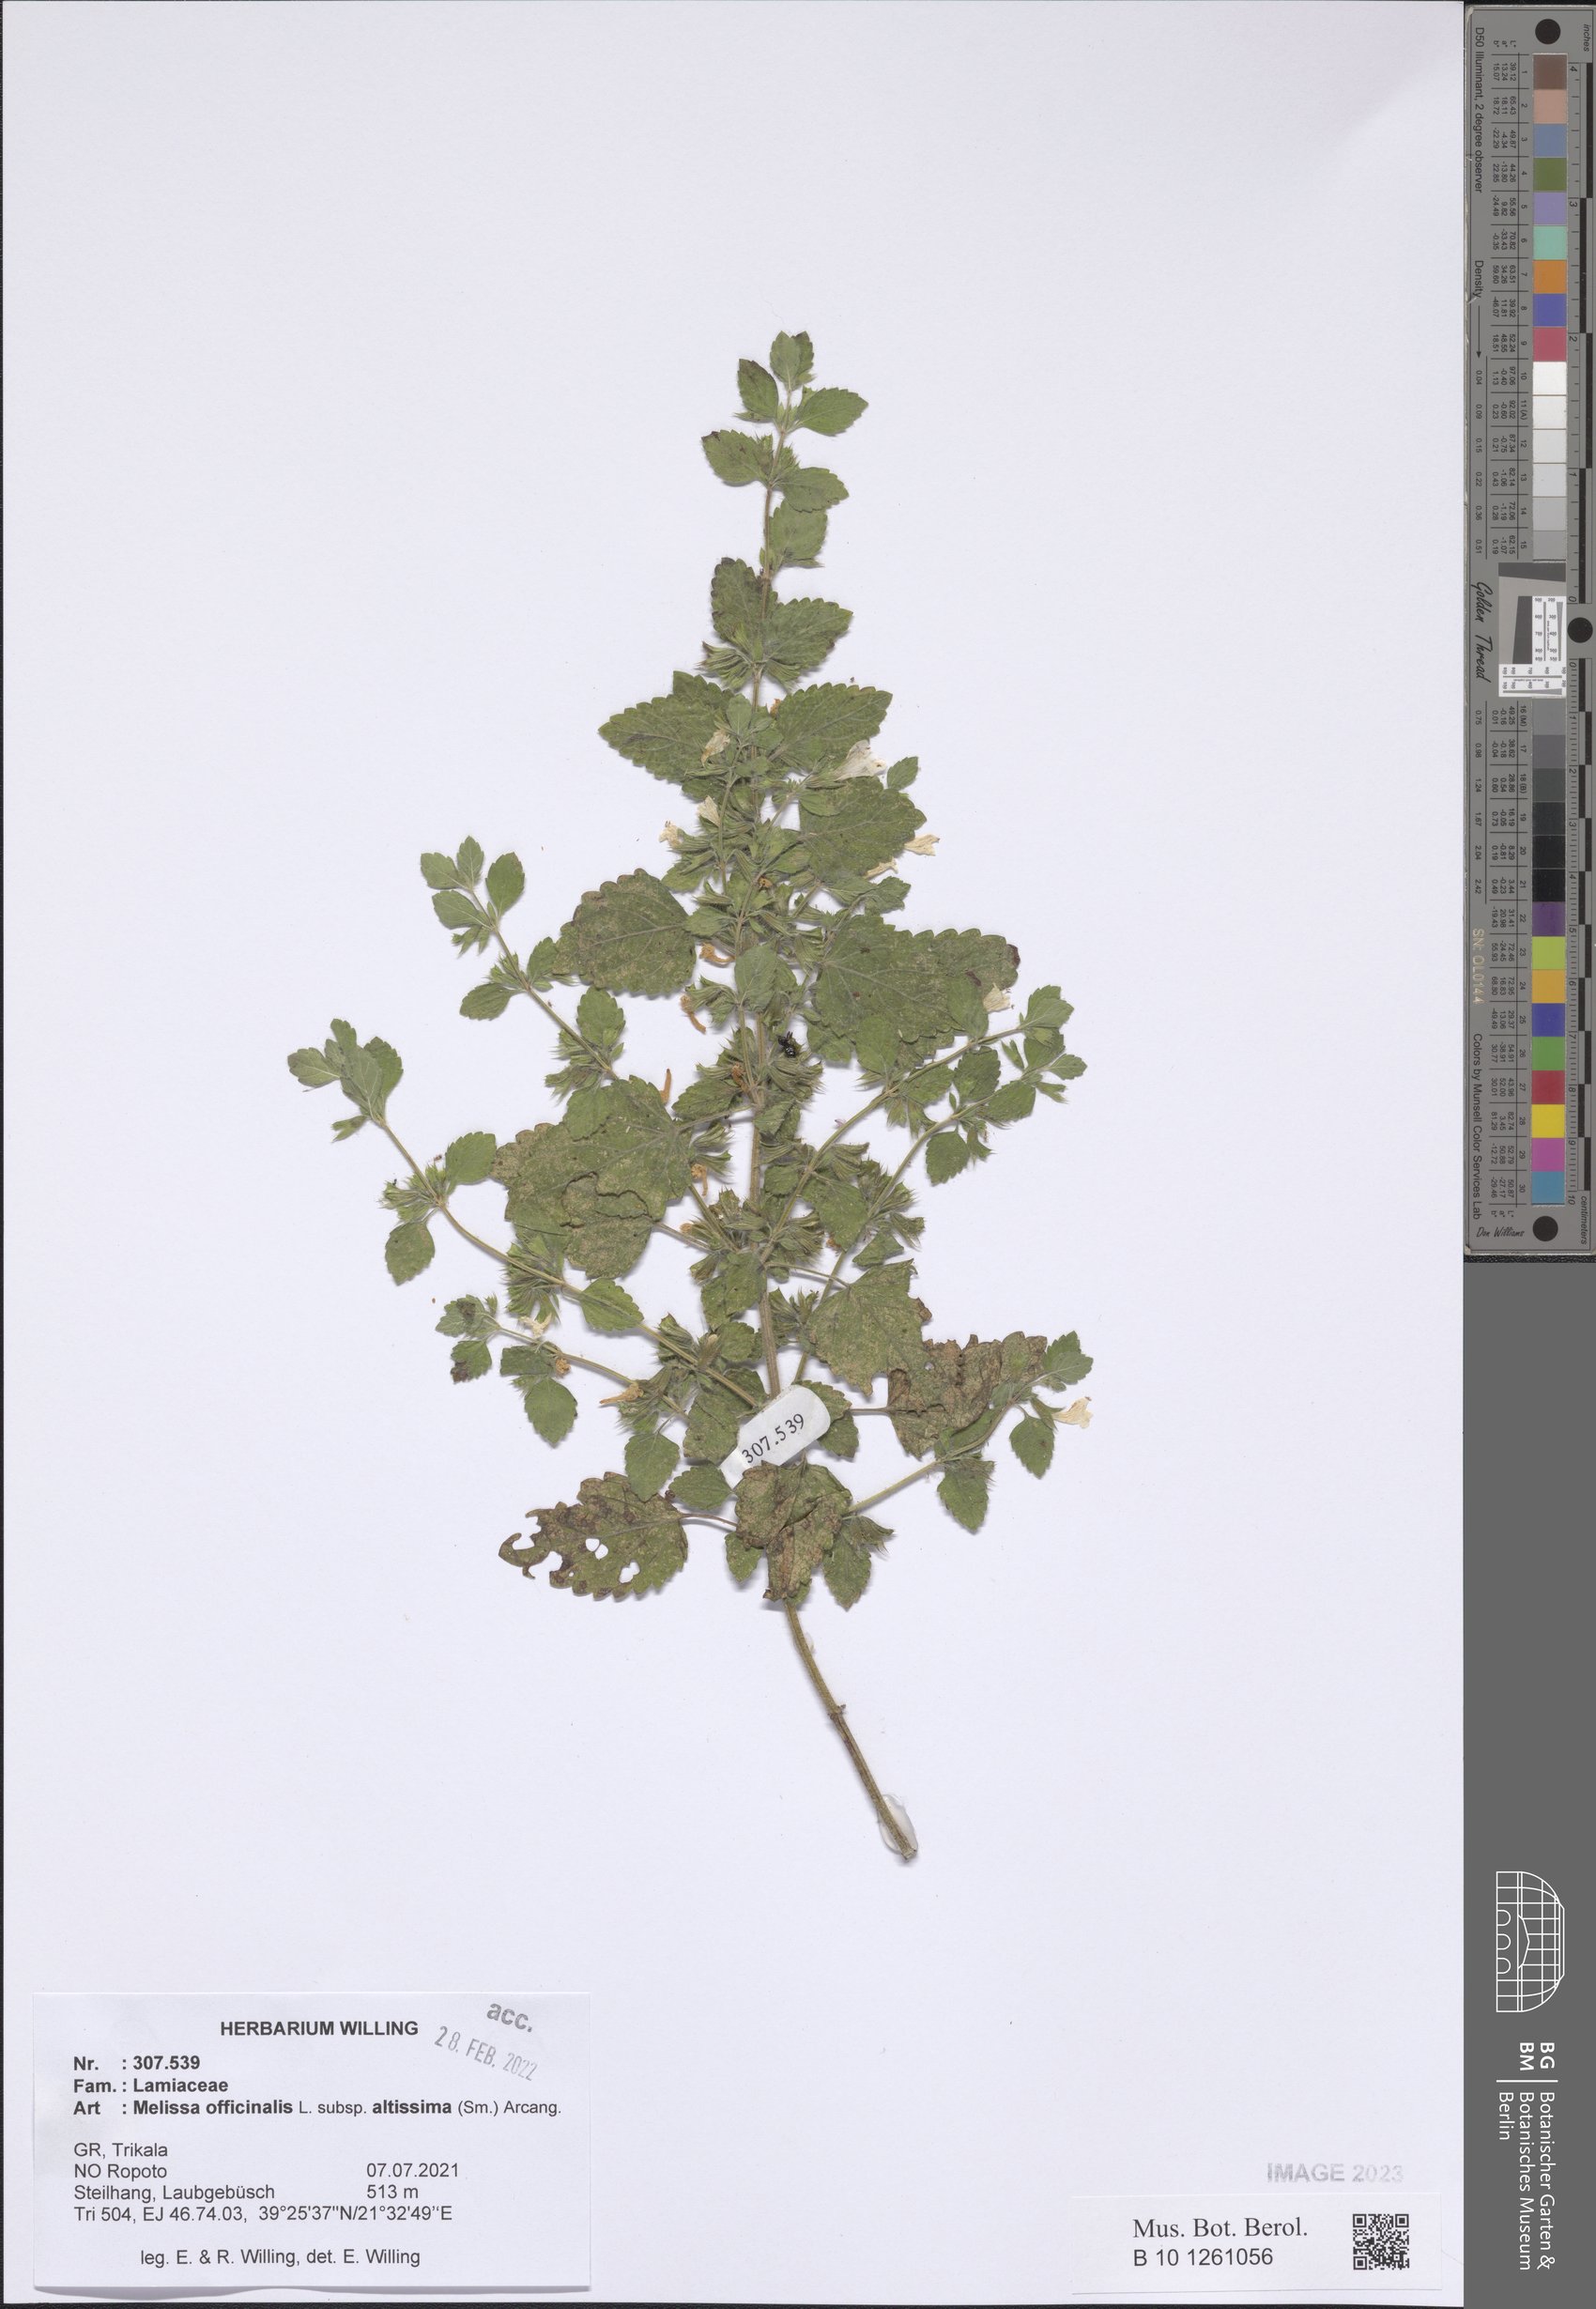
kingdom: Plantae
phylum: Tracheophyta
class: Magnoliopsida
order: Lamiales
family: Lamiaceae
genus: Melissa
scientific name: Melissa officinalis
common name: Balm
